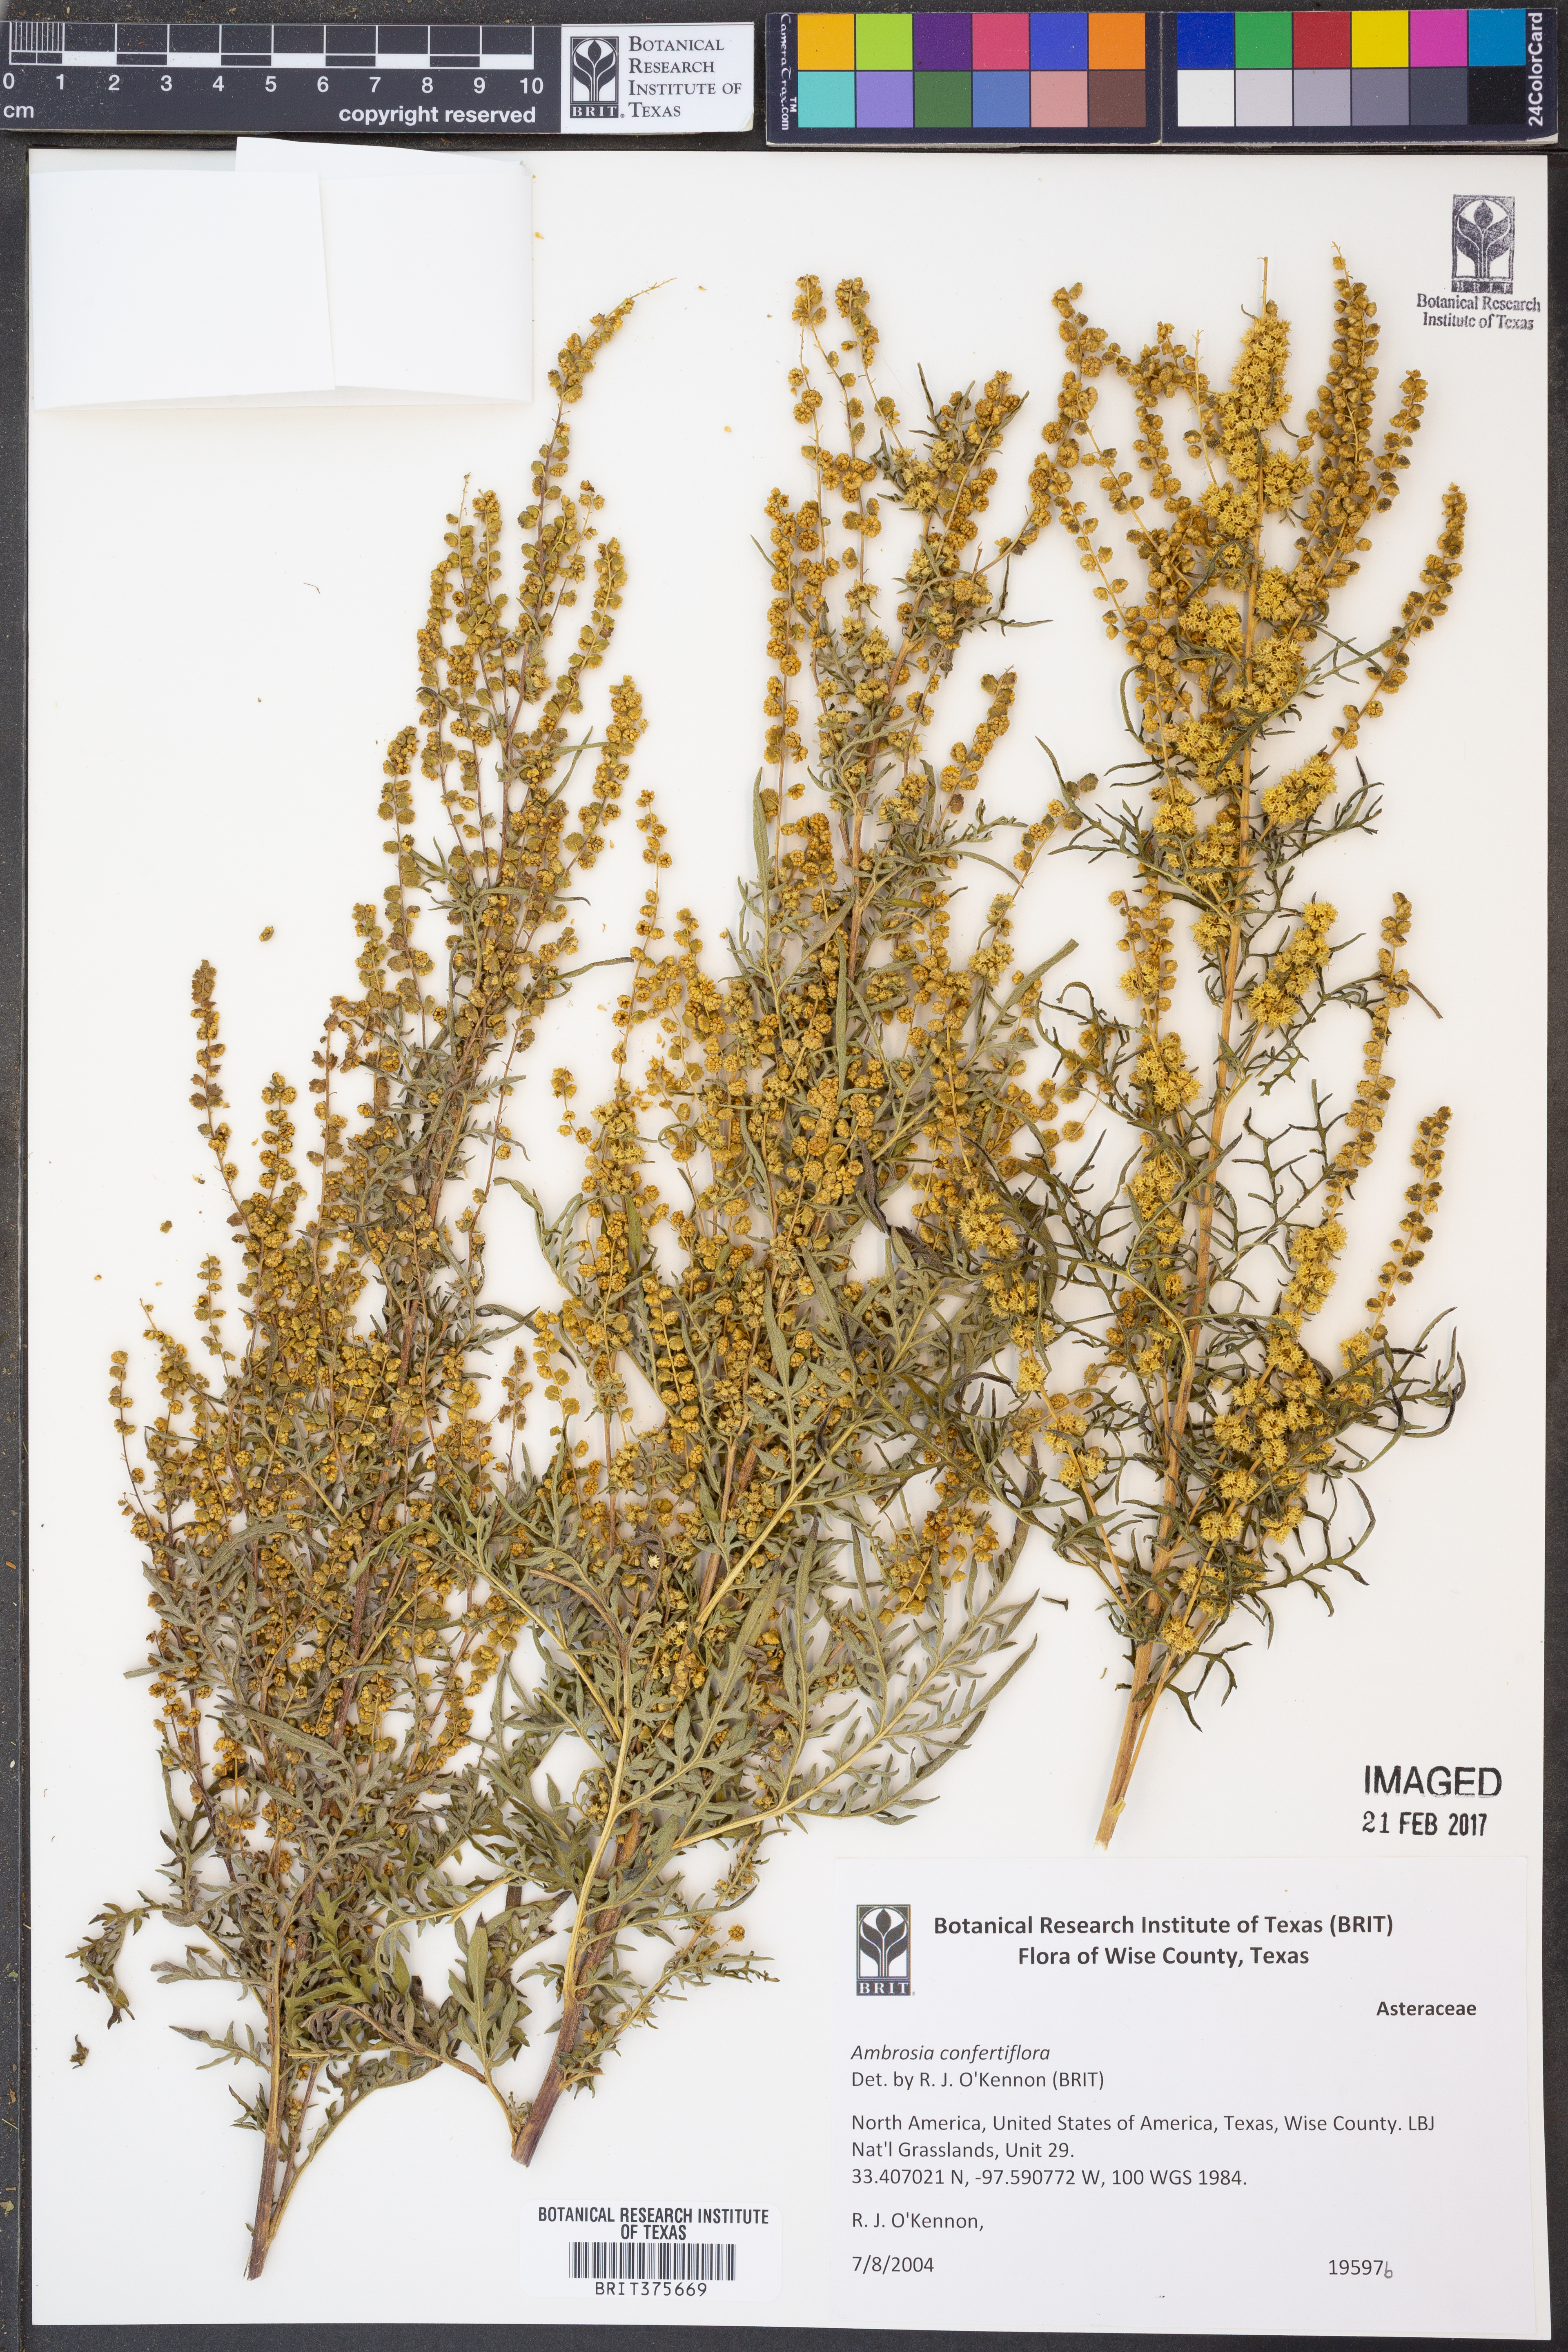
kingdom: Plantae
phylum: Tracheophyta
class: Magnoliopsida
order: Asterales
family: Asteraceae
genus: Ambrosia
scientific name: Ambrosia confertiflora
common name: Bur ragweed
